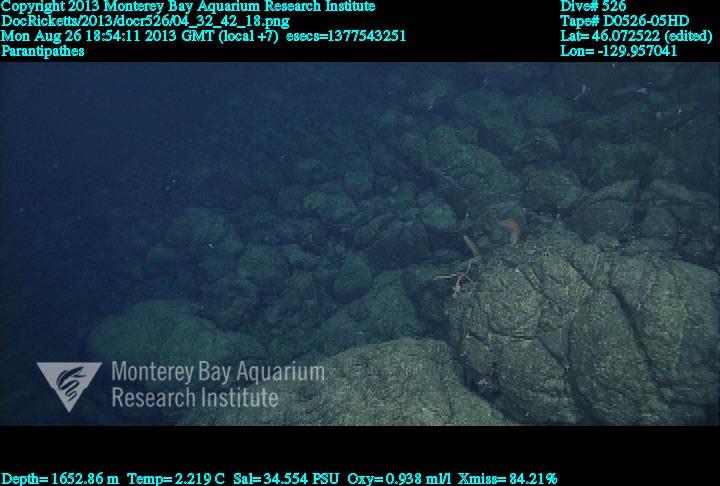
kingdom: Animalia
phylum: Cnidaria
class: Anthozoa
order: Antipatharia
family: Schizopathidae
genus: Parantipathes
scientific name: Parantipathes
